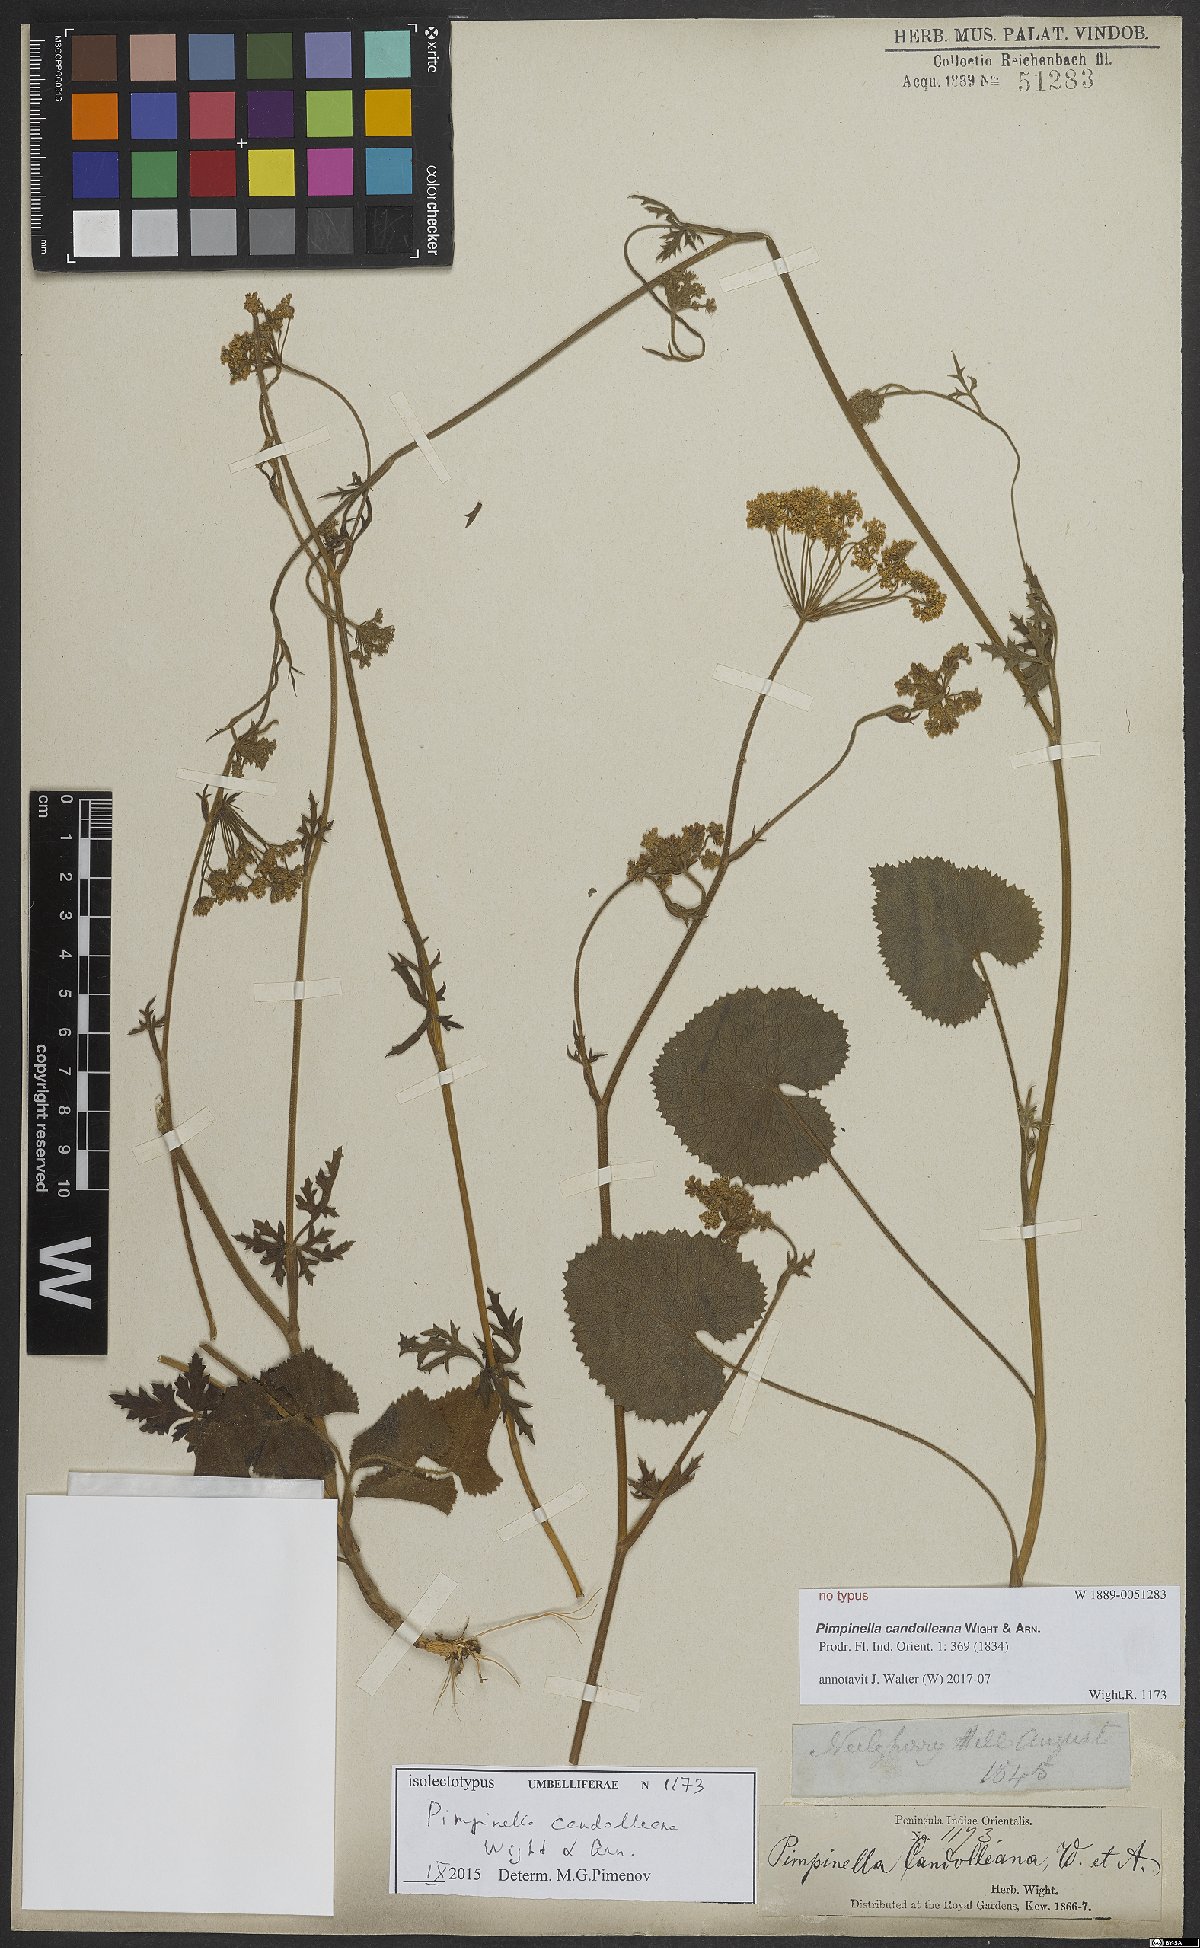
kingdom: Plantae
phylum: Tracheophyta
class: Magnoliopsida
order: Apiales
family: Apiaceae
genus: Pimpinella
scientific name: Pimpinella candolleana
